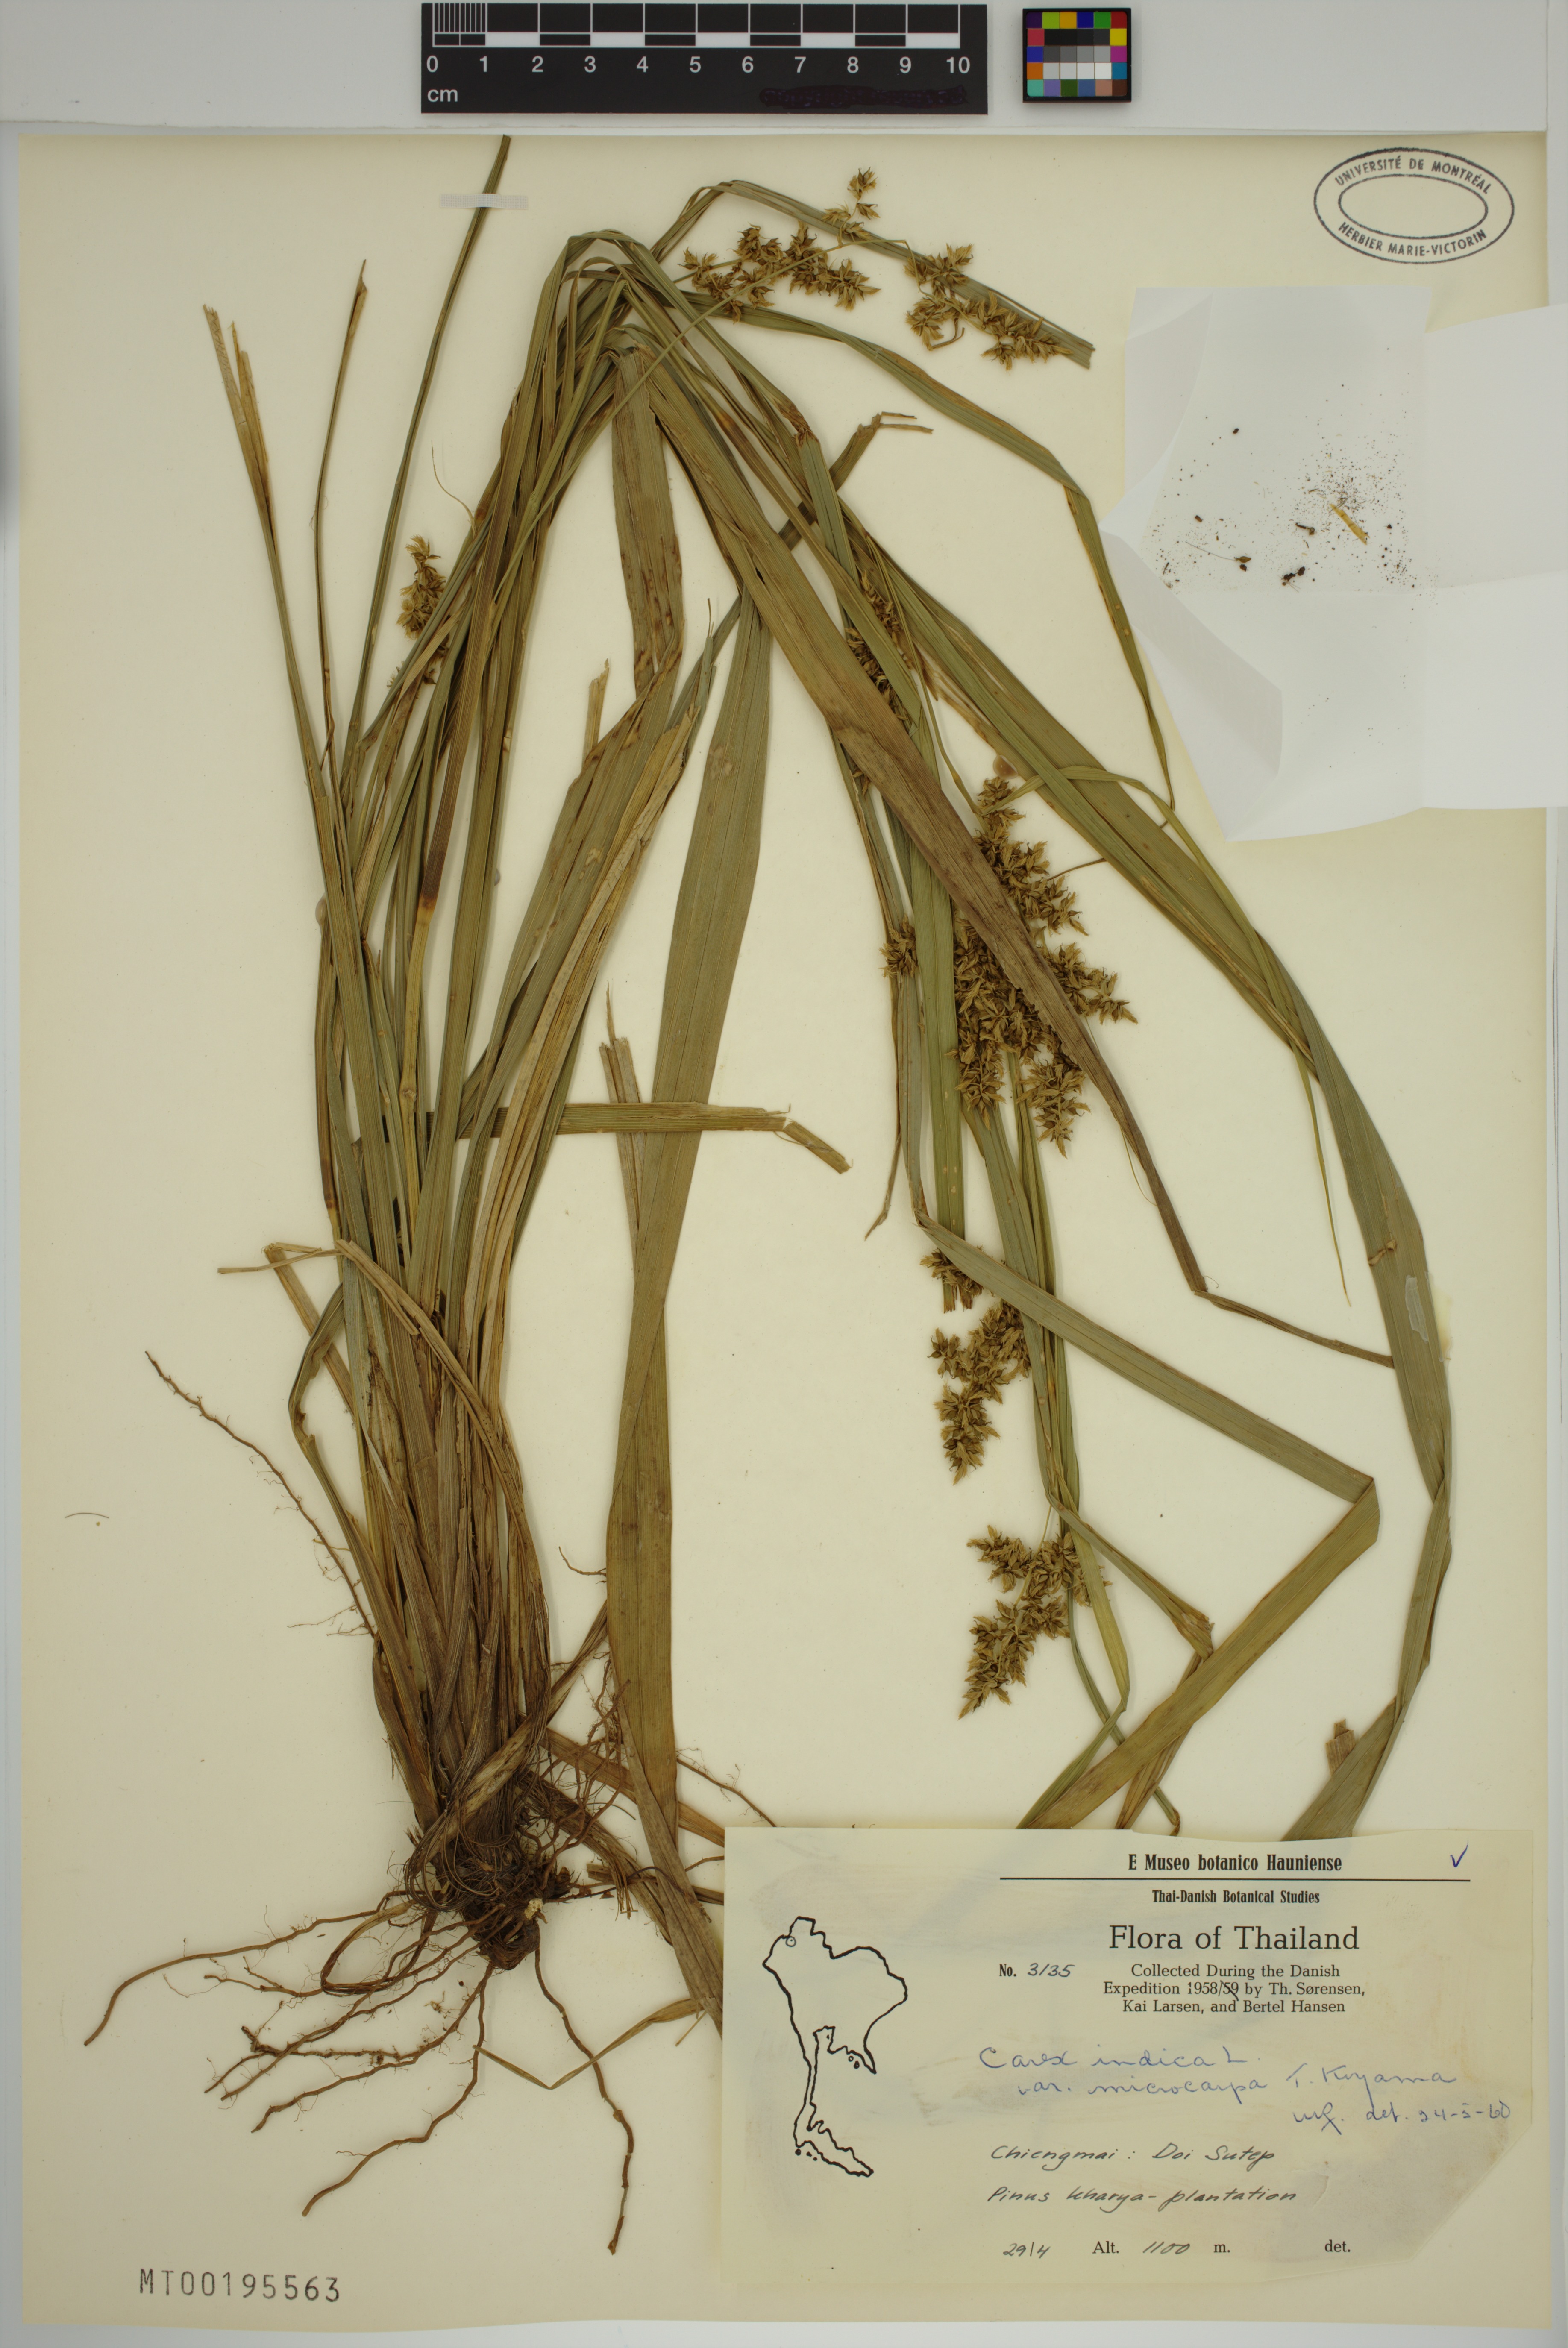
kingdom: Plantae
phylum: Tracheophyta
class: Liliopsida
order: Poales
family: Cyperaceae
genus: Carex
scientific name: Carex indica
